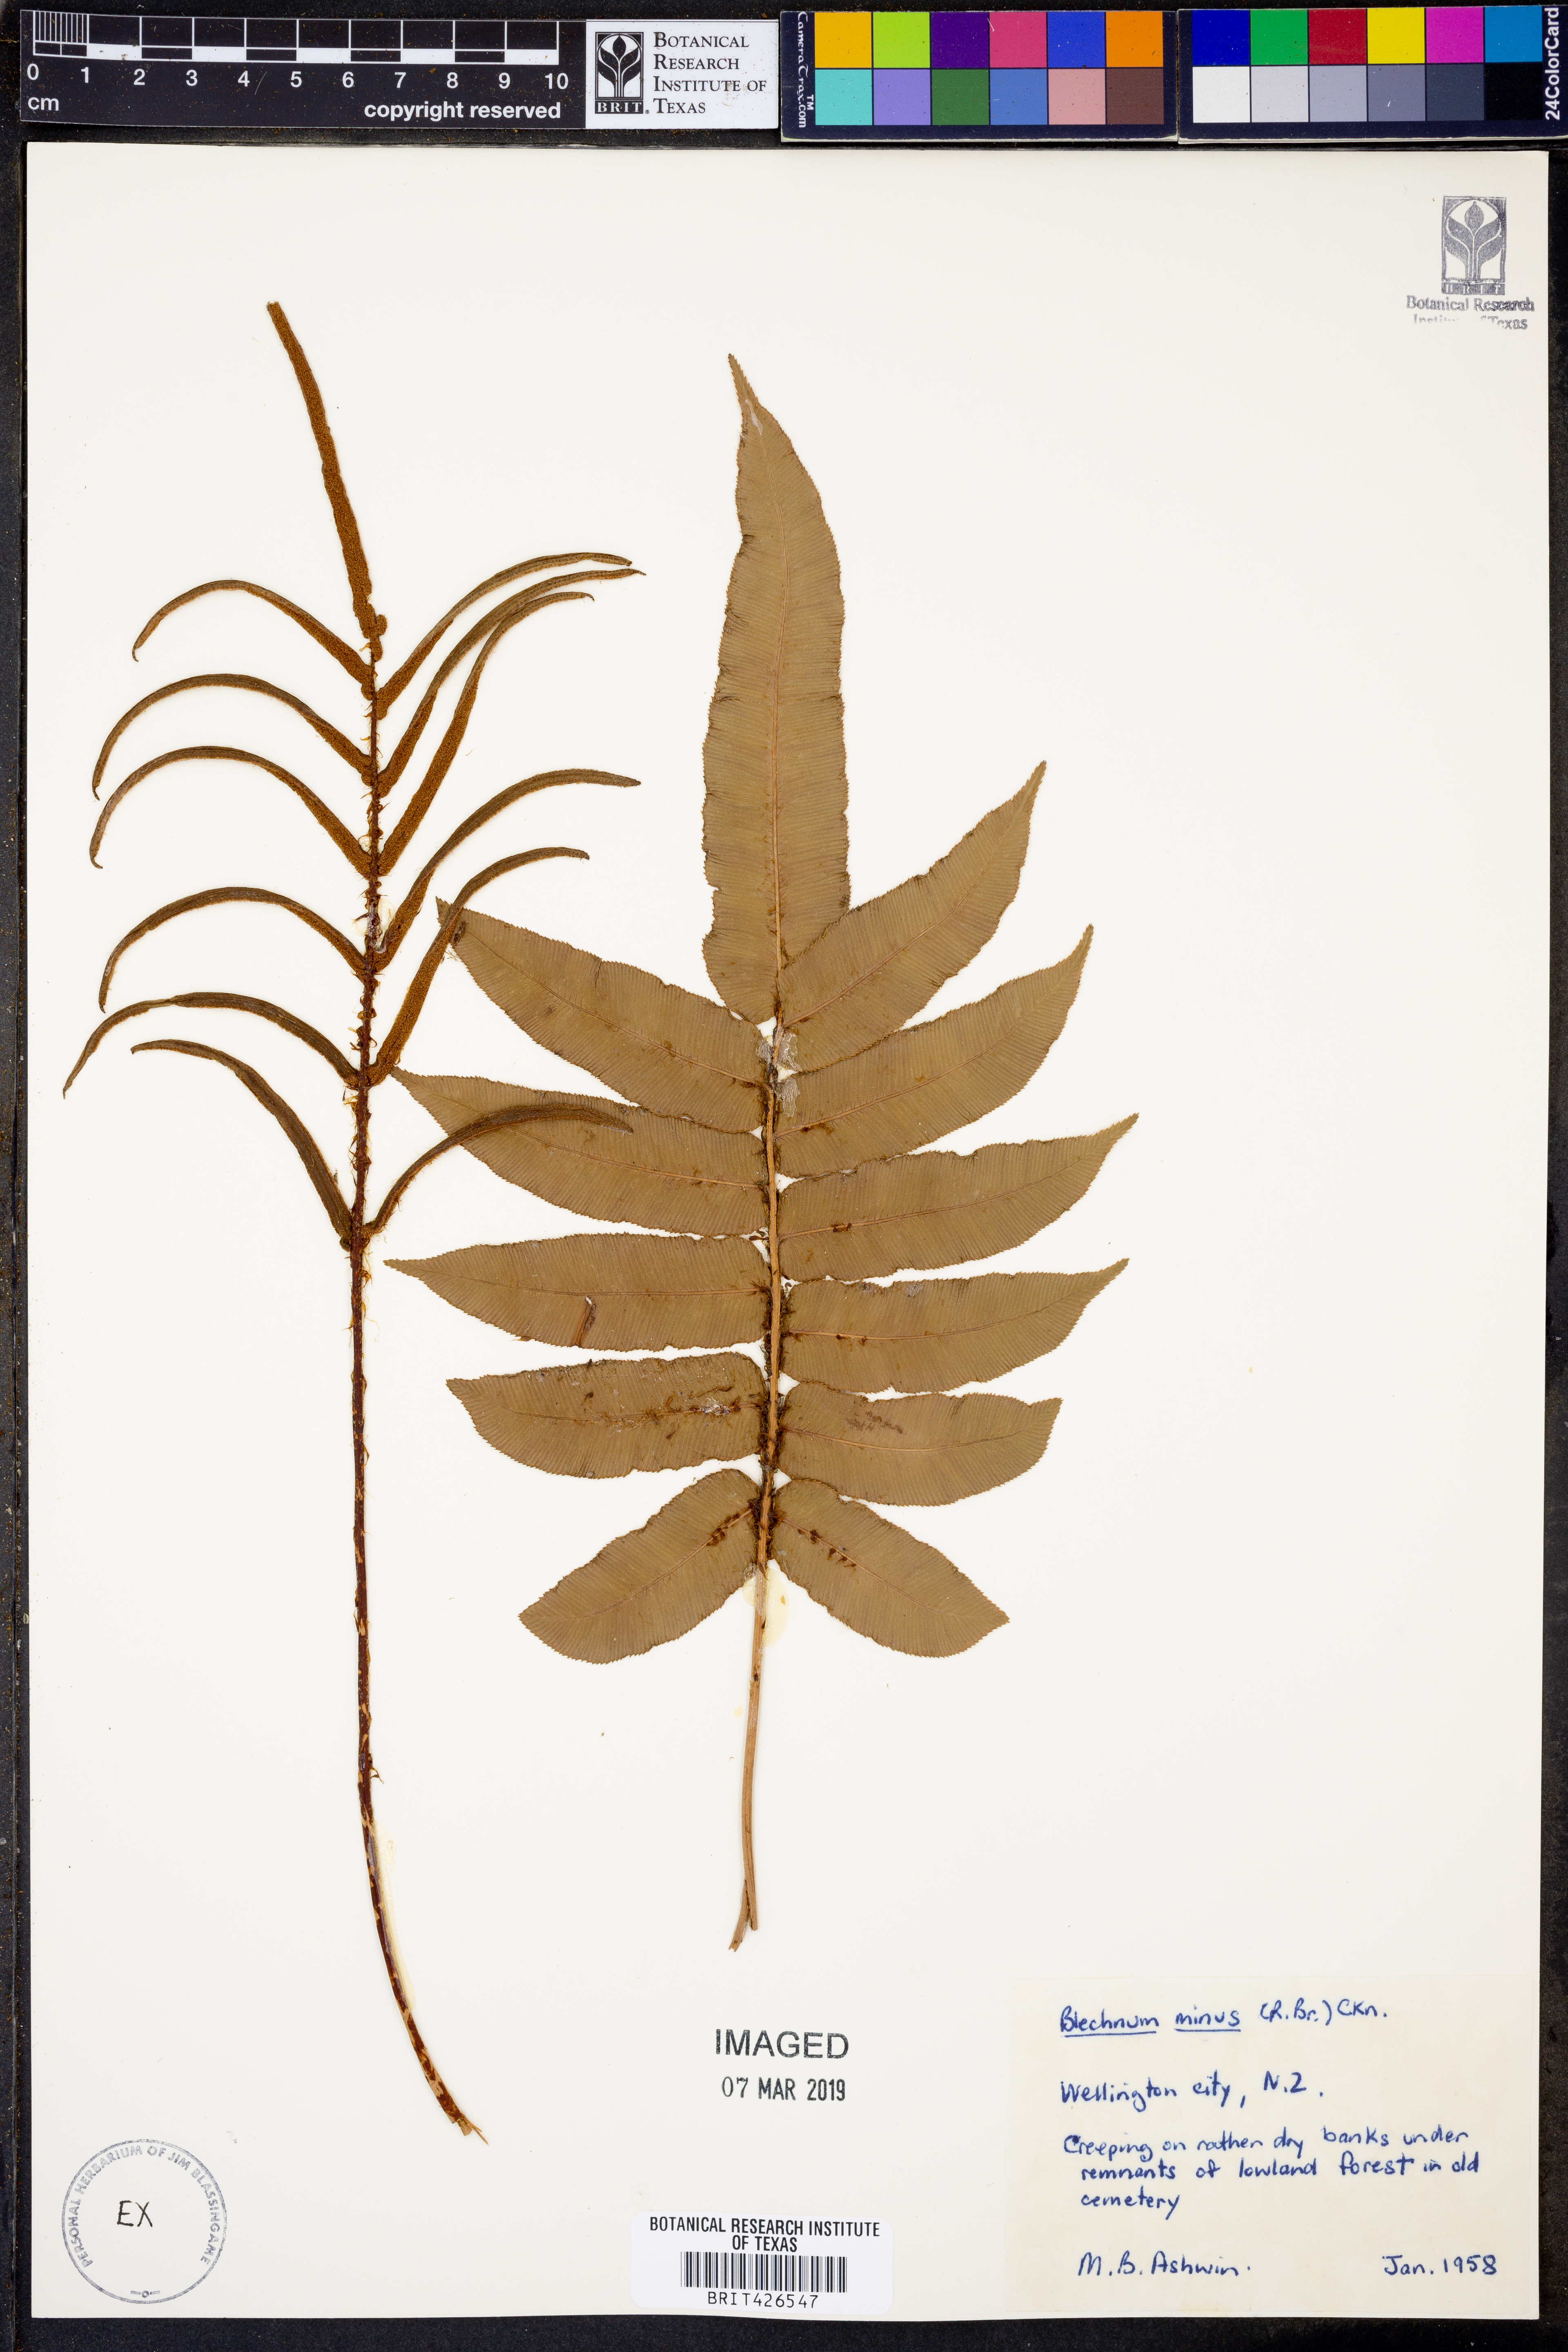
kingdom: Plantae
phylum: Tracheophyta
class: Polypodiopsida
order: Polypodiales
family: Blechnaceae
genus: Parablechnum
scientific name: Parablechnum minus
